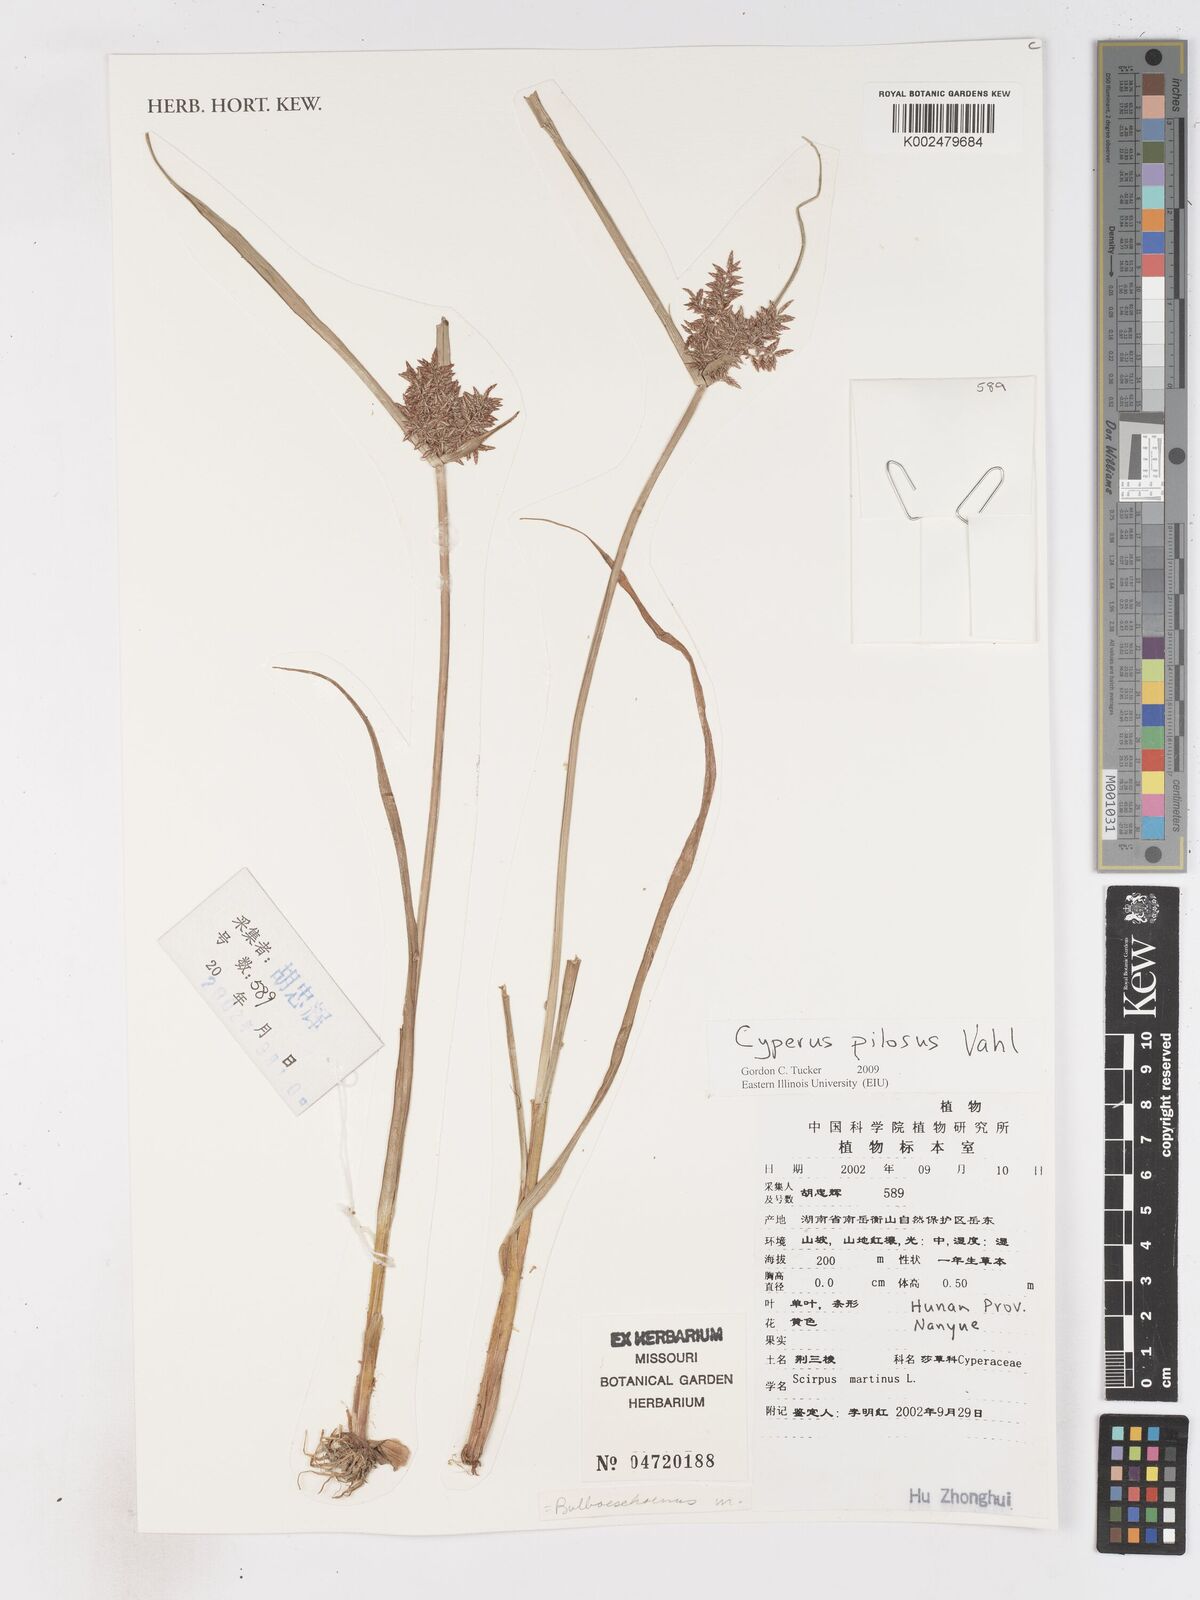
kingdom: Plantae
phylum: Tracheophyta
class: Liliopsida
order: Poales
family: Cyperaceae
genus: Cyperus
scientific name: Cyperus pilosus
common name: Fuzzy flatsedge
